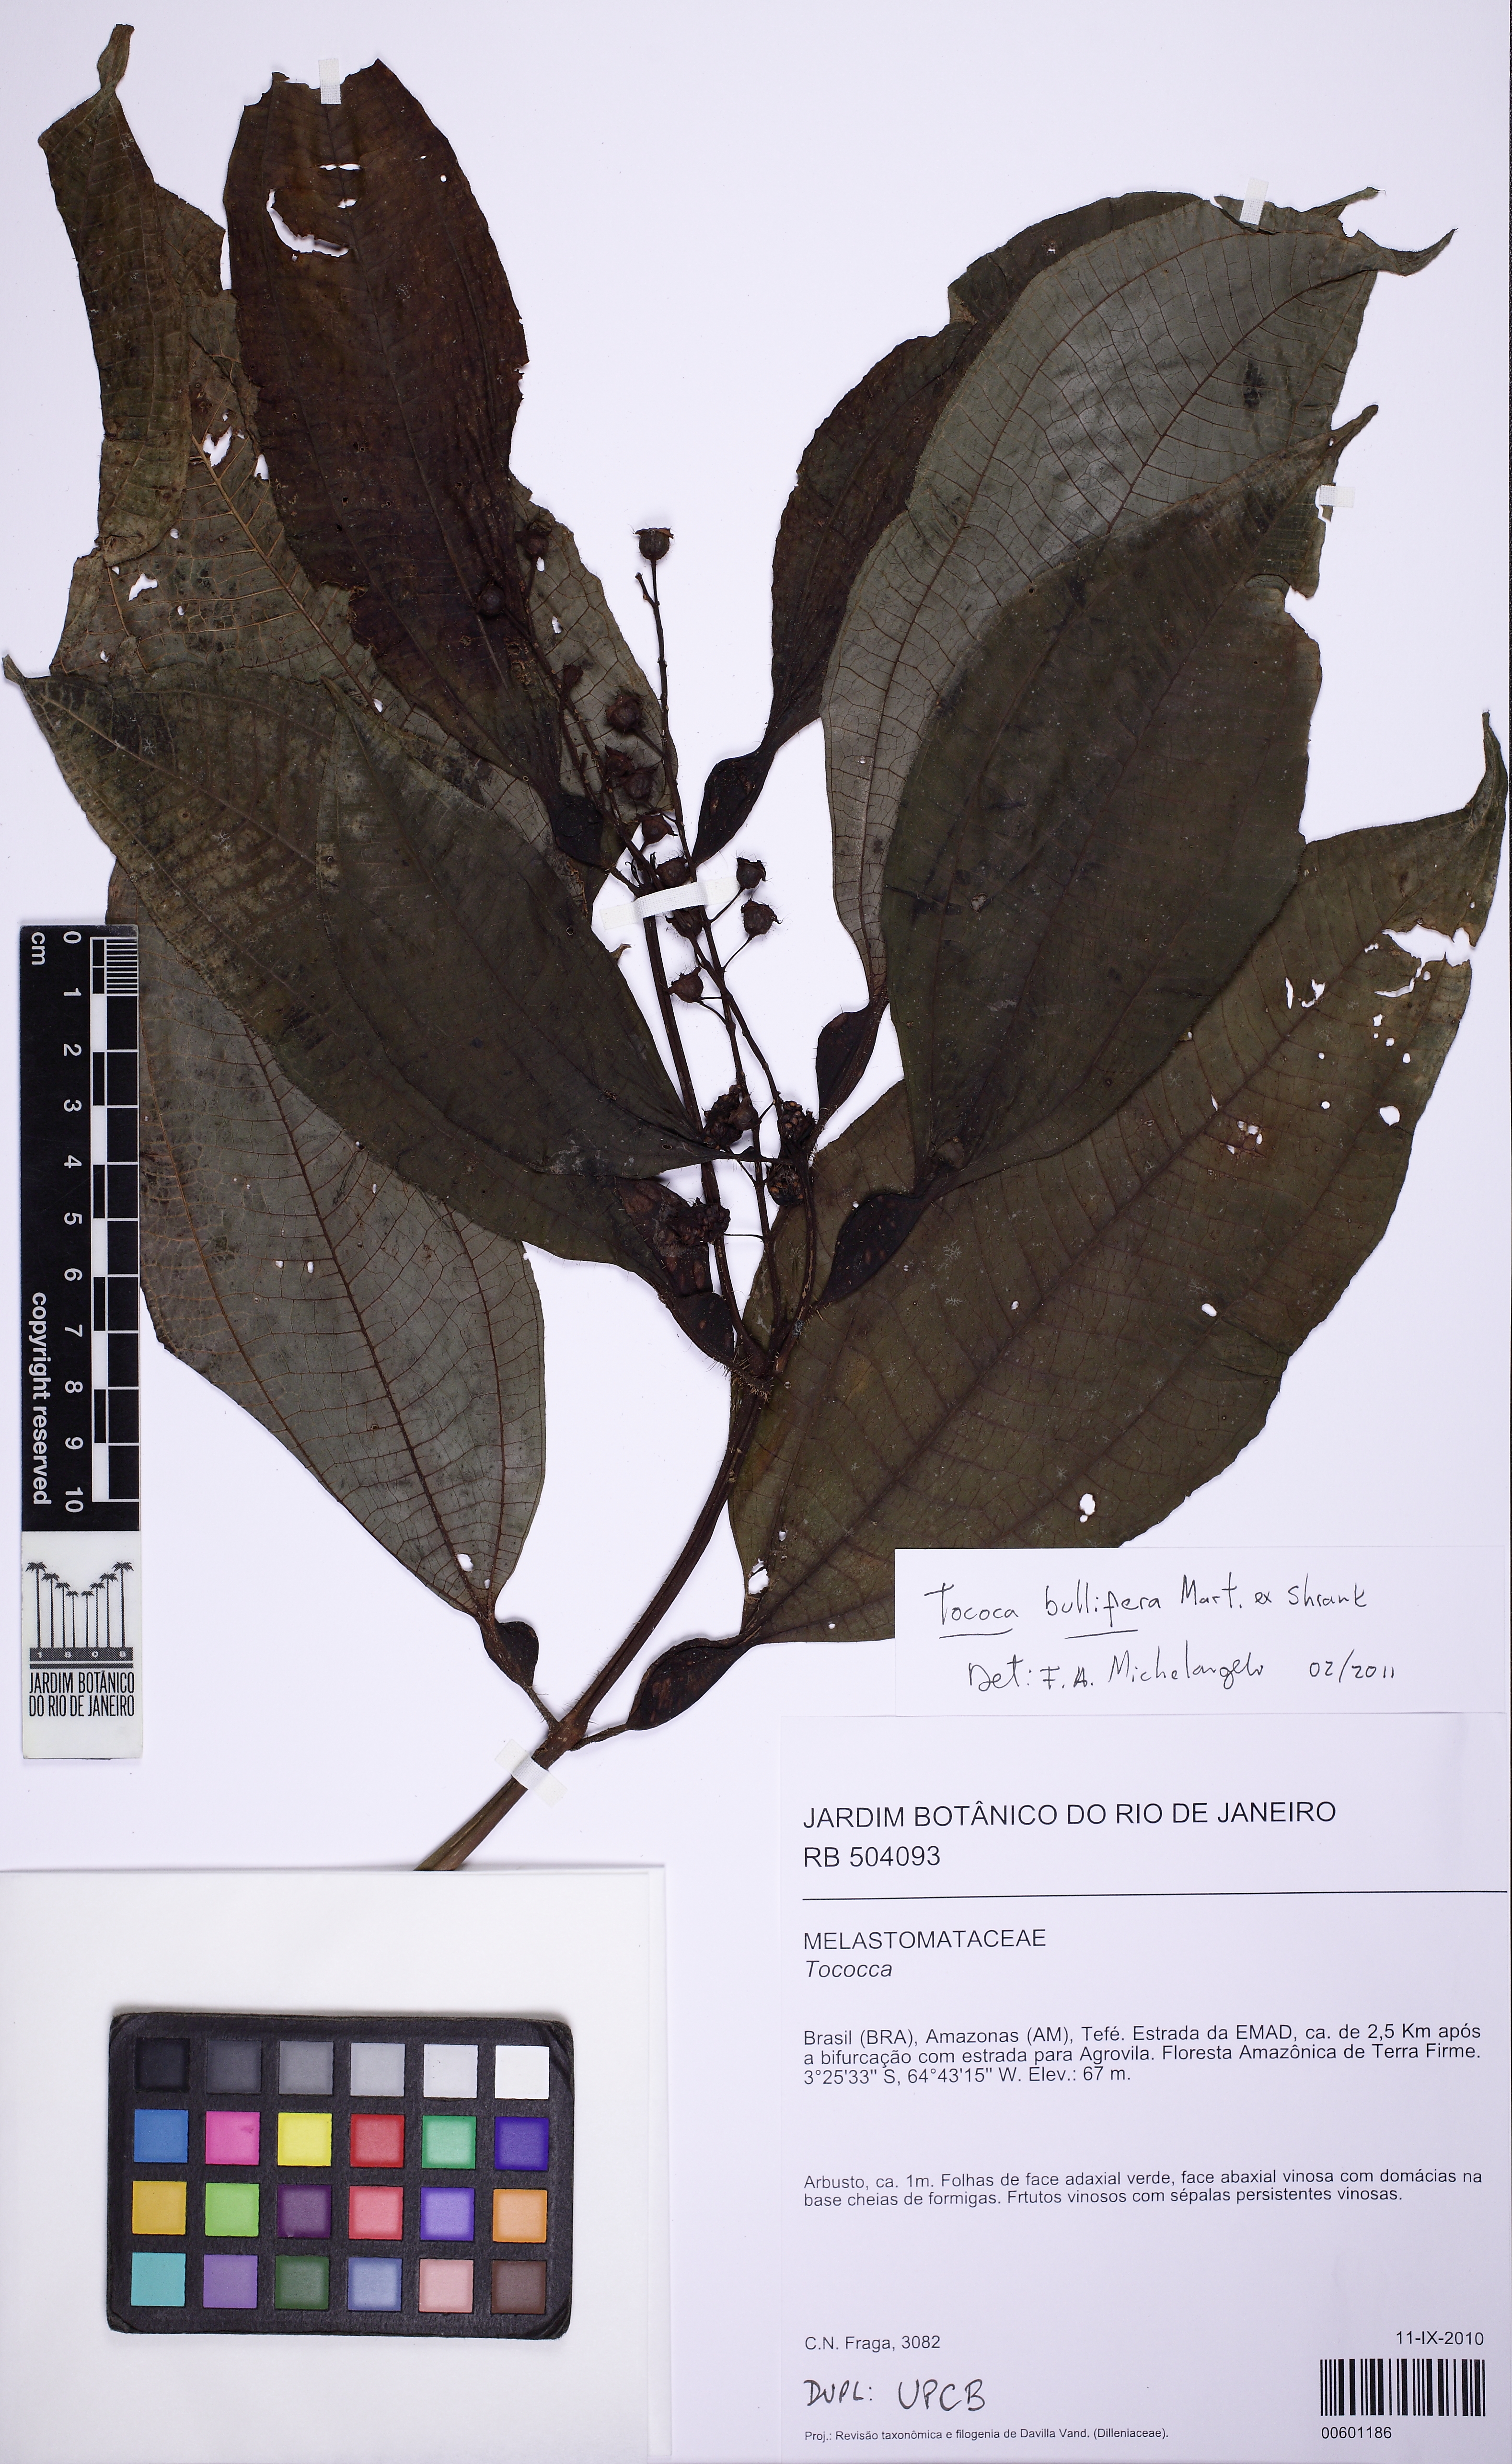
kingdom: Plantae
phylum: Tracheophyta
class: Magnoliopsida
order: Myrtales
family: Melastomataceae
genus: Miconia
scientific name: Miconia bullifera
